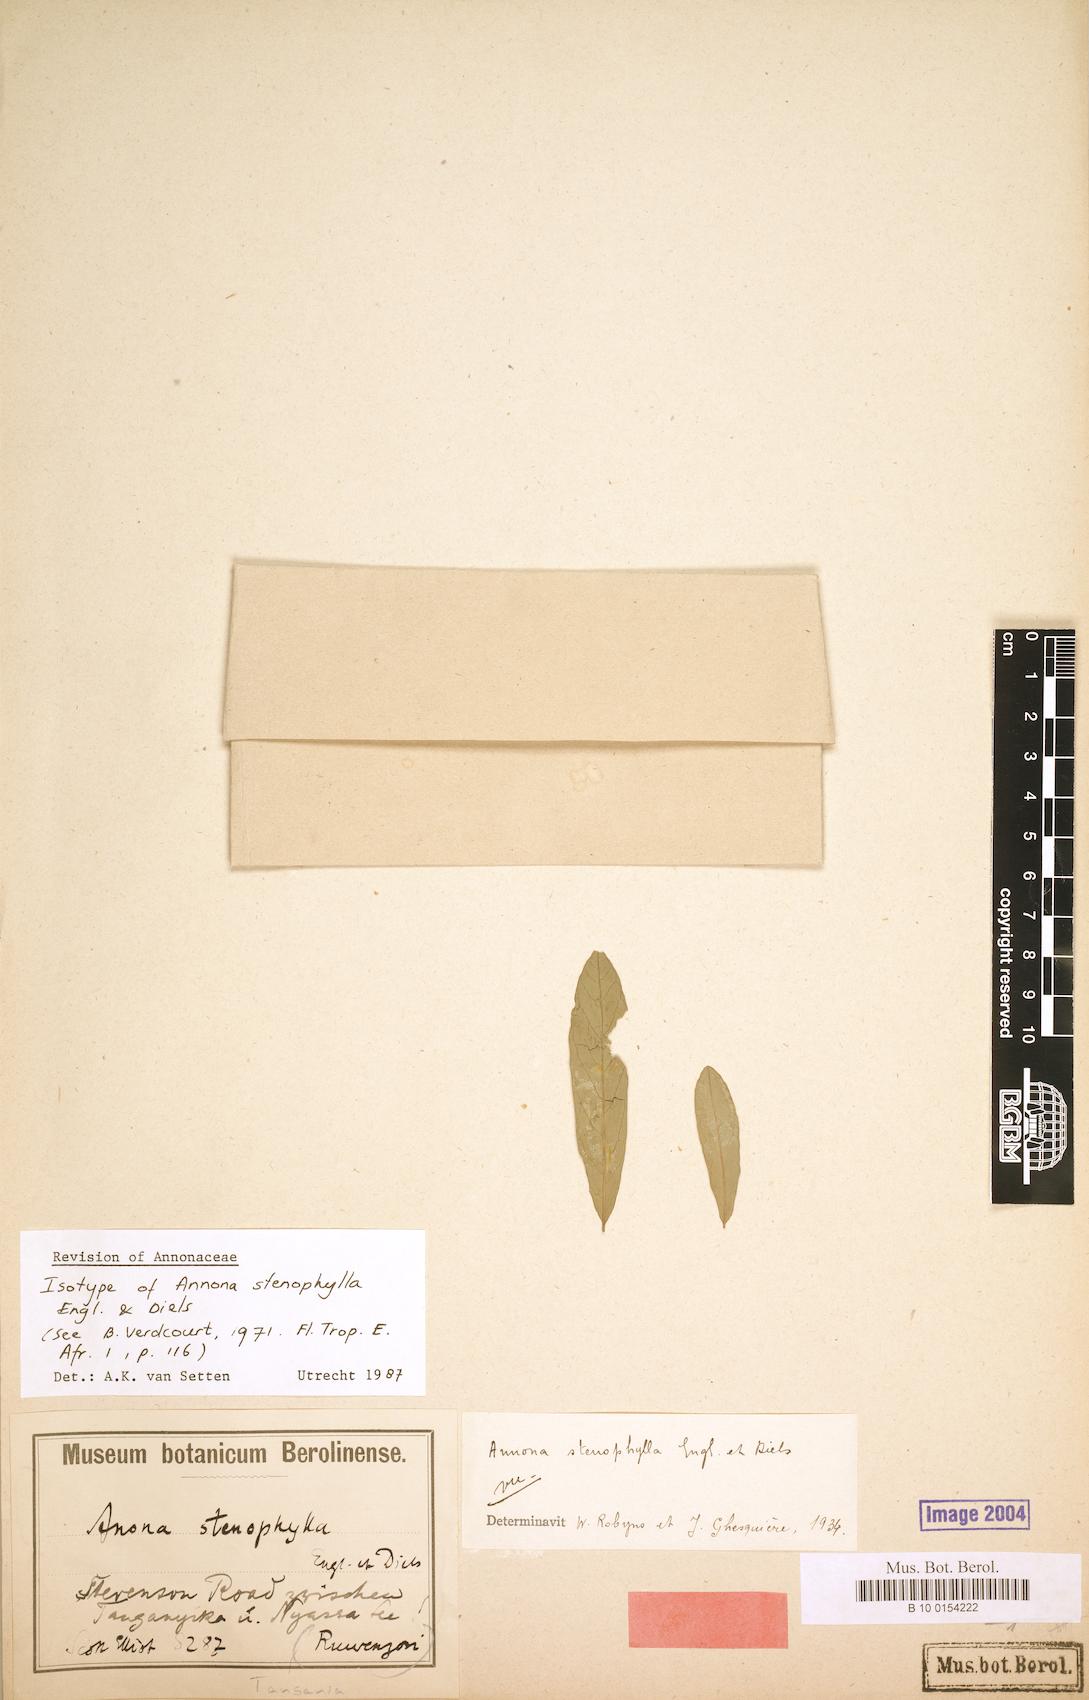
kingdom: Plantae
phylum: Tracheophyta
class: Magnoliopsida
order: Magnoliales
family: Annonaceae
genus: Annona
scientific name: Annona stenophylla
